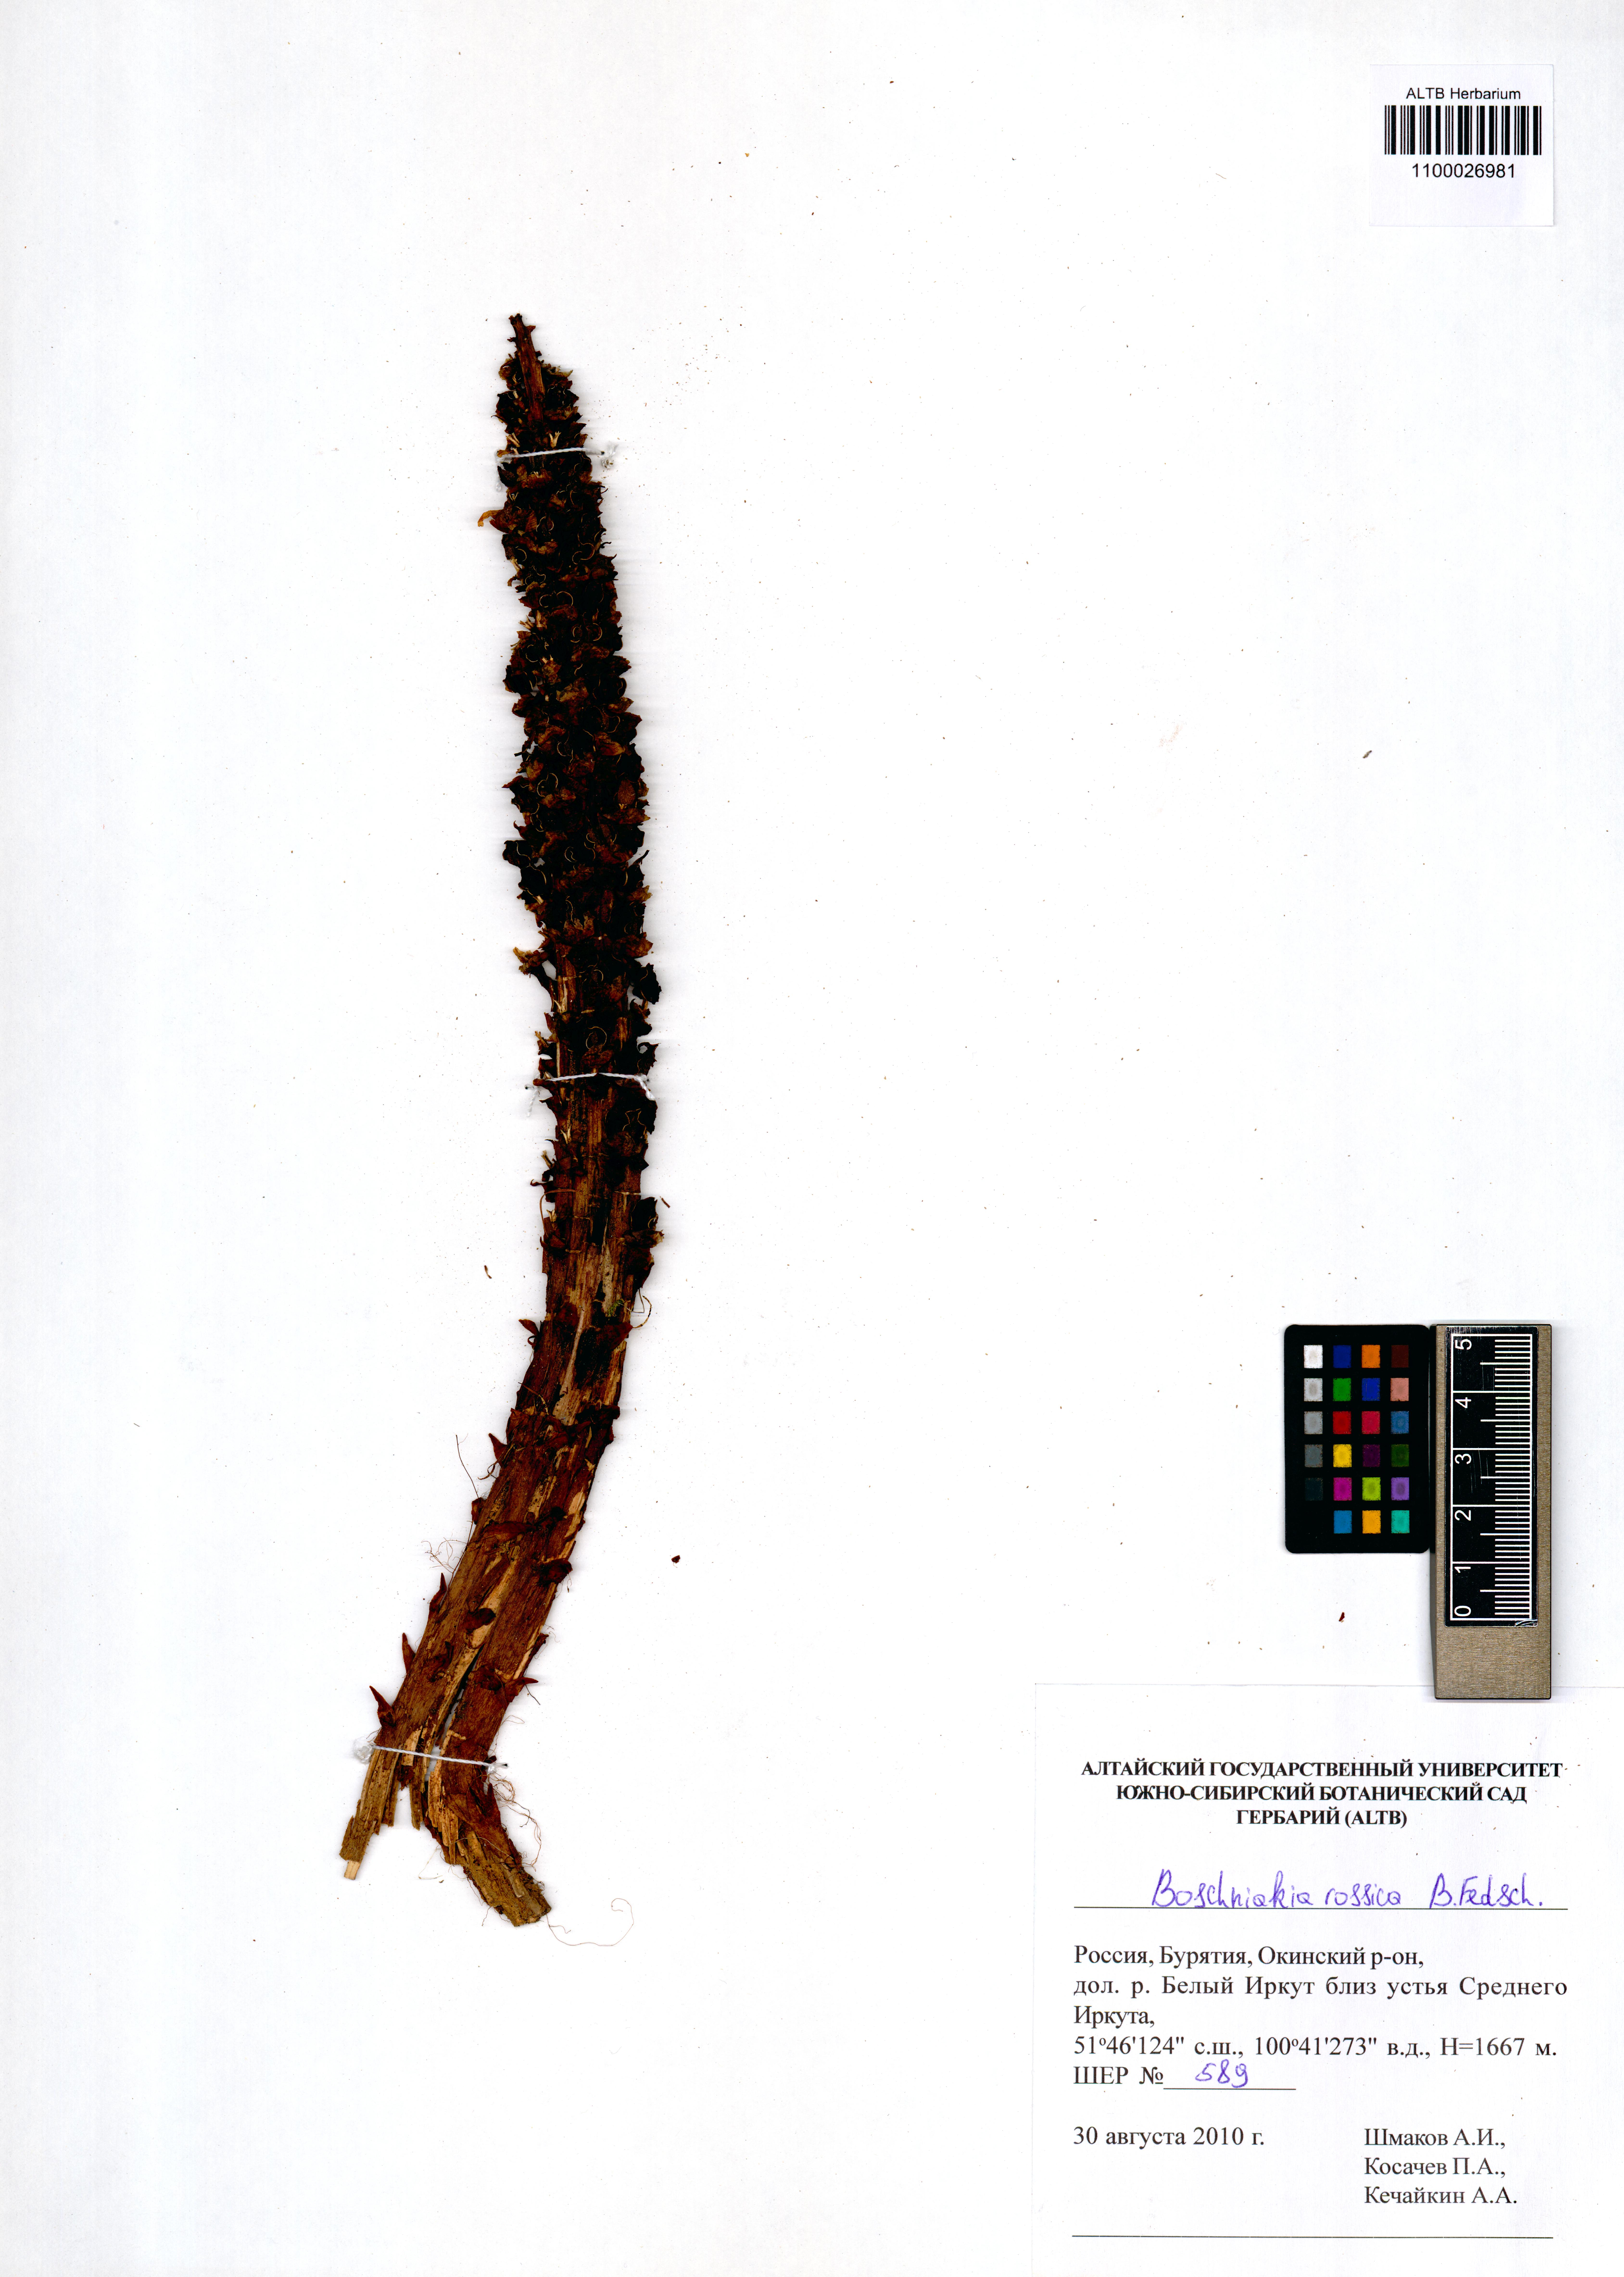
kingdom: Plantae
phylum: Tracheophyta
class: Magnoliopsida
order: Lamiales
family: Orobanchaceae
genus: Boschniakia
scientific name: Boschniakia rossica
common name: Poque
